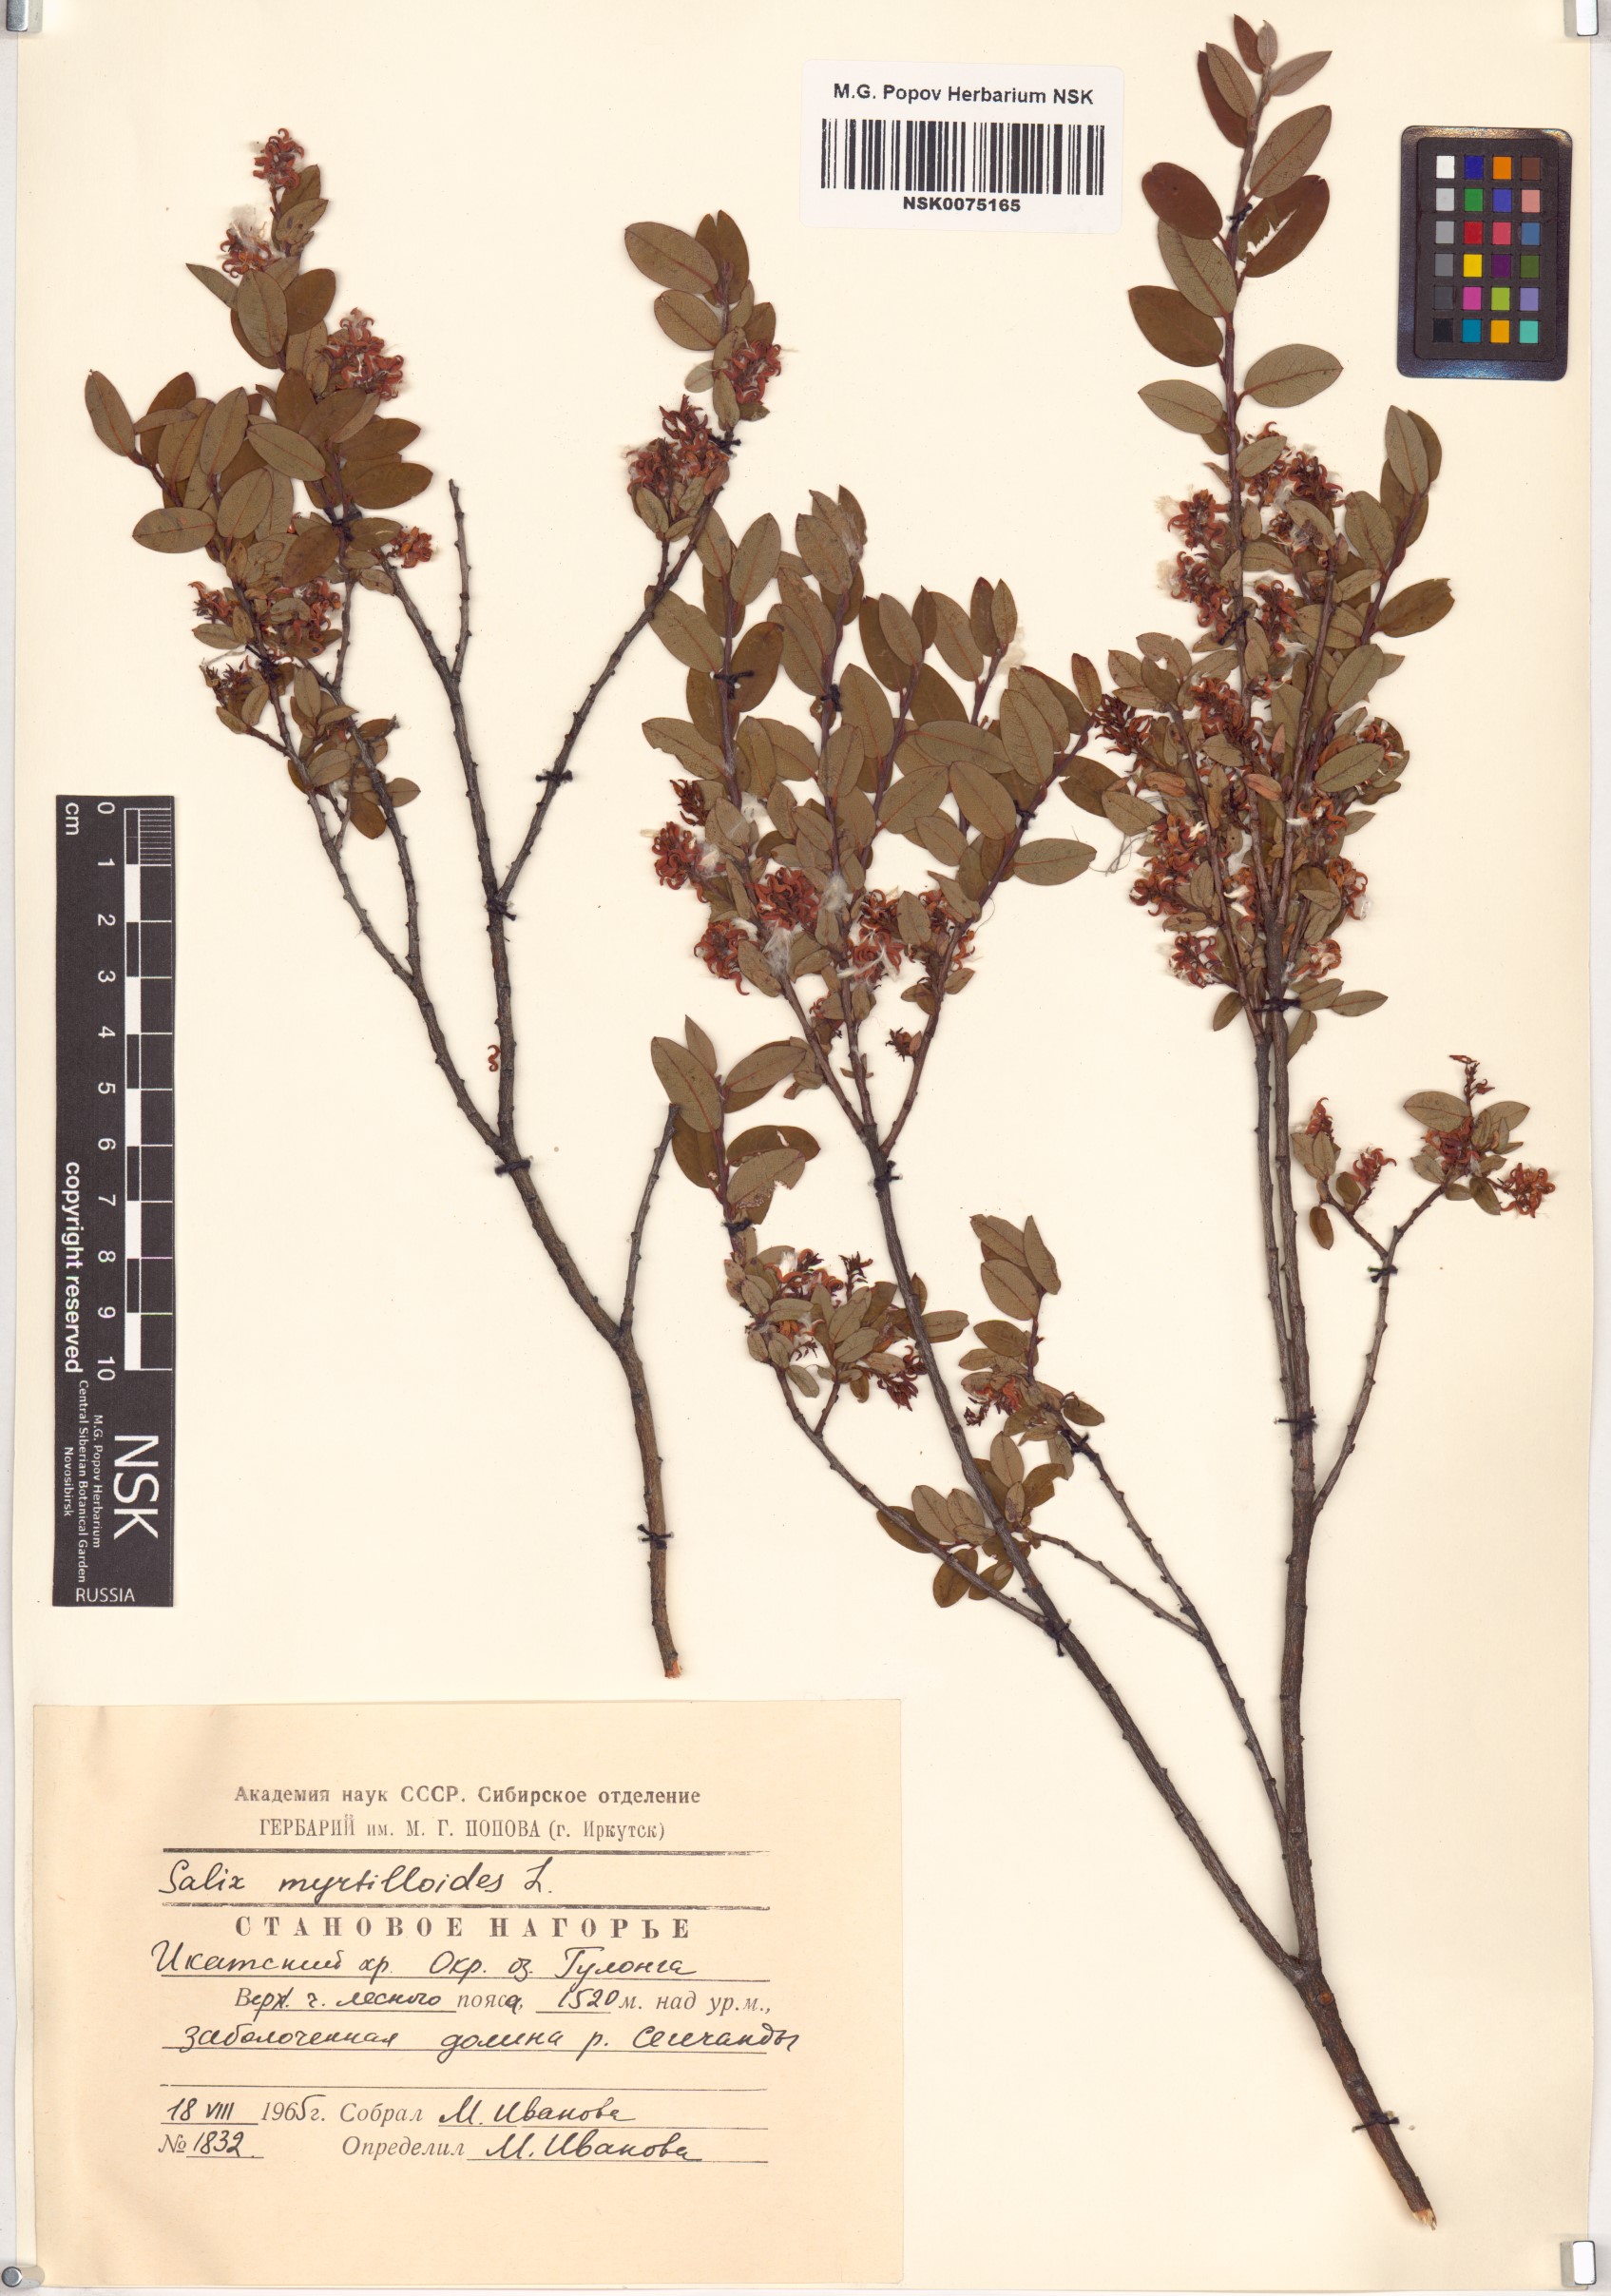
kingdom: Plantae
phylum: Tracheophyta
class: Magnoliopsida
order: Malpighiales
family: Salicaceae
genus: Salix
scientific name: Salix myrtilloides
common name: Myrtle-leaved willow
